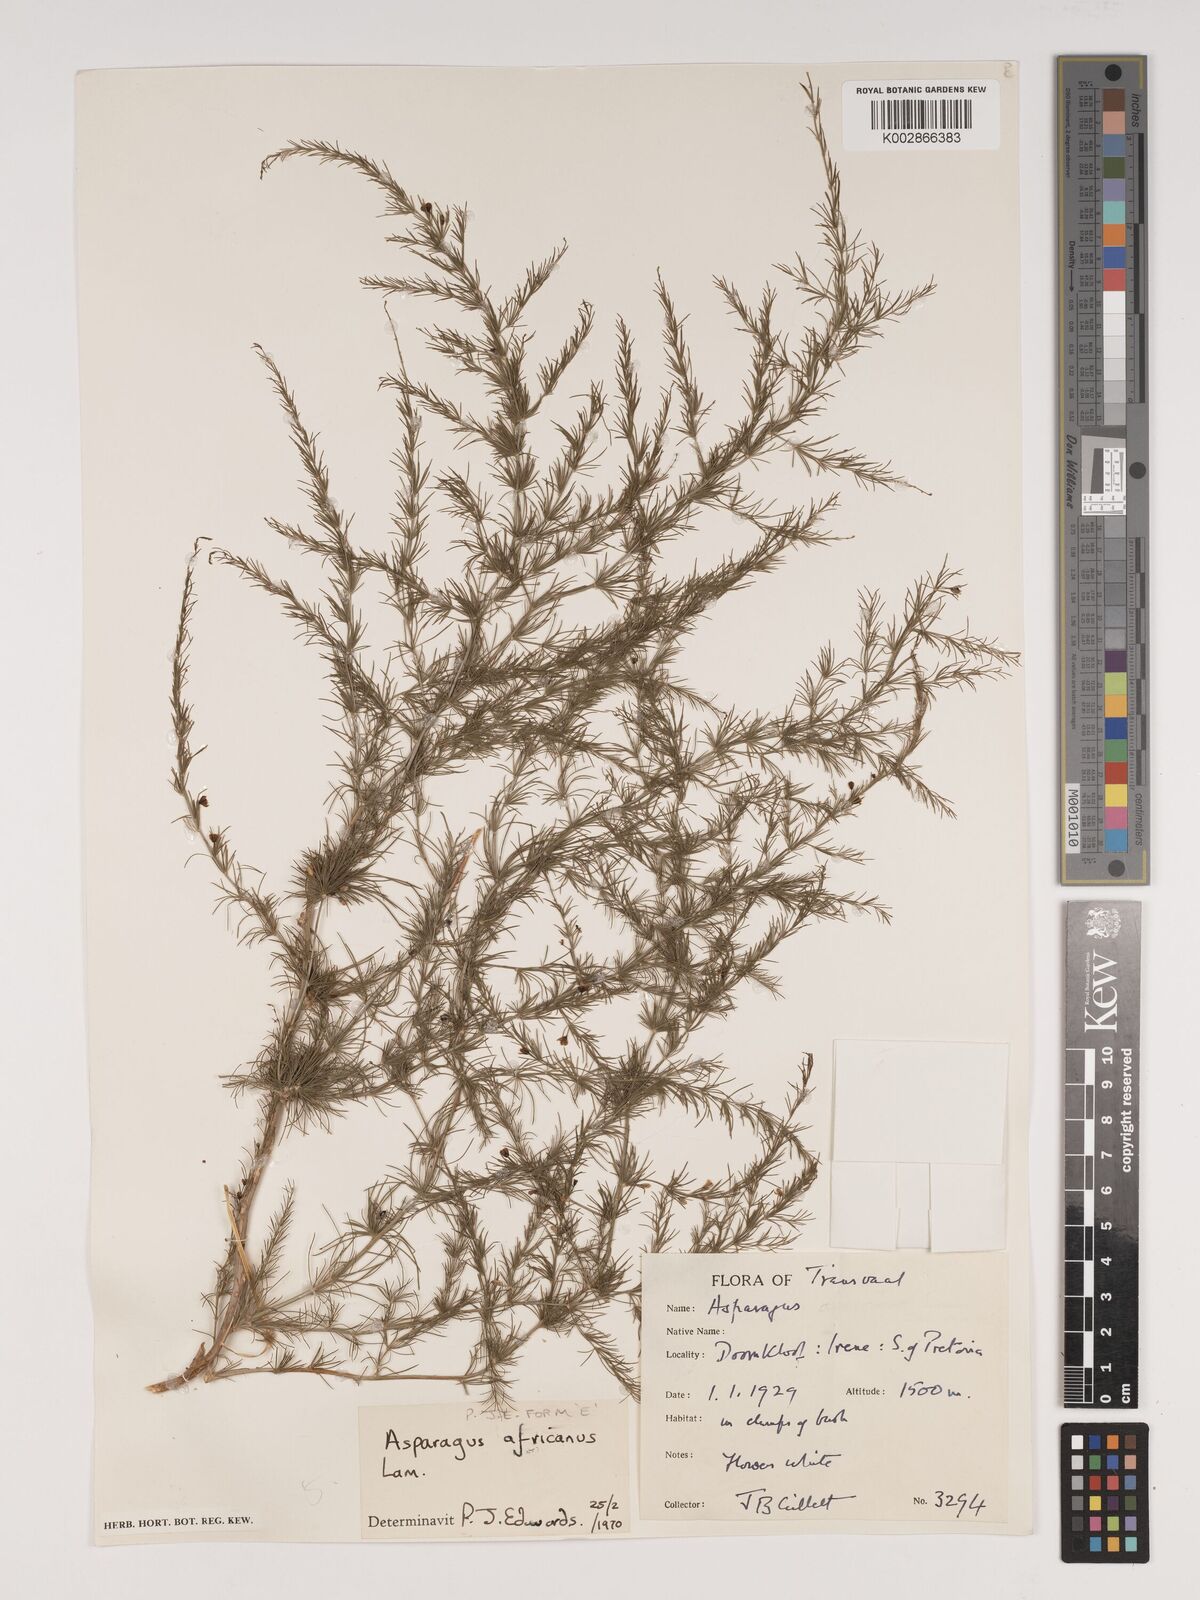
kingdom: Plantae
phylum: Tracheophyta
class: Liliopsida
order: Asparagales
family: Asparagaceae
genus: Asparagus
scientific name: Asparagus africanus
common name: Asparagus-fern
